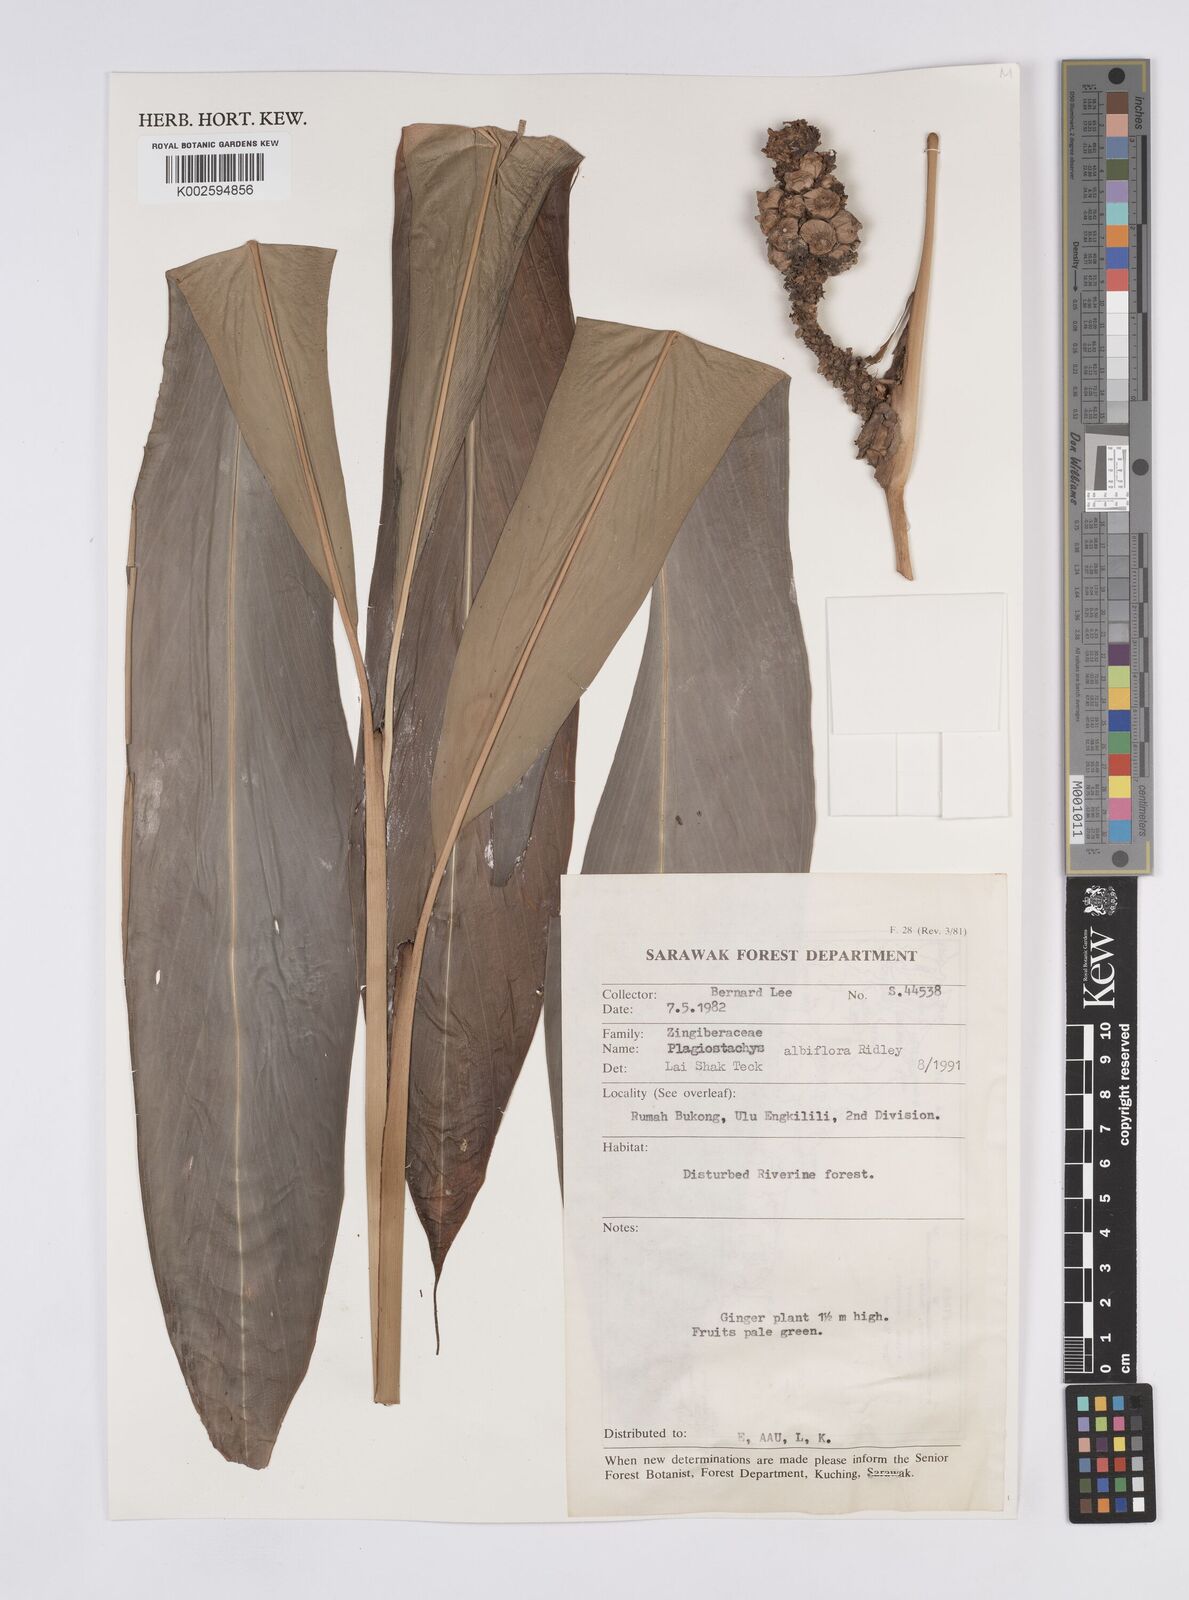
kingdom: Plantae
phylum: Tracheophyta
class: Liliopsida
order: Zingiberales
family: Zingiberaceae
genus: Plagiostachys
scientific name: Plagiostachys albiflora
